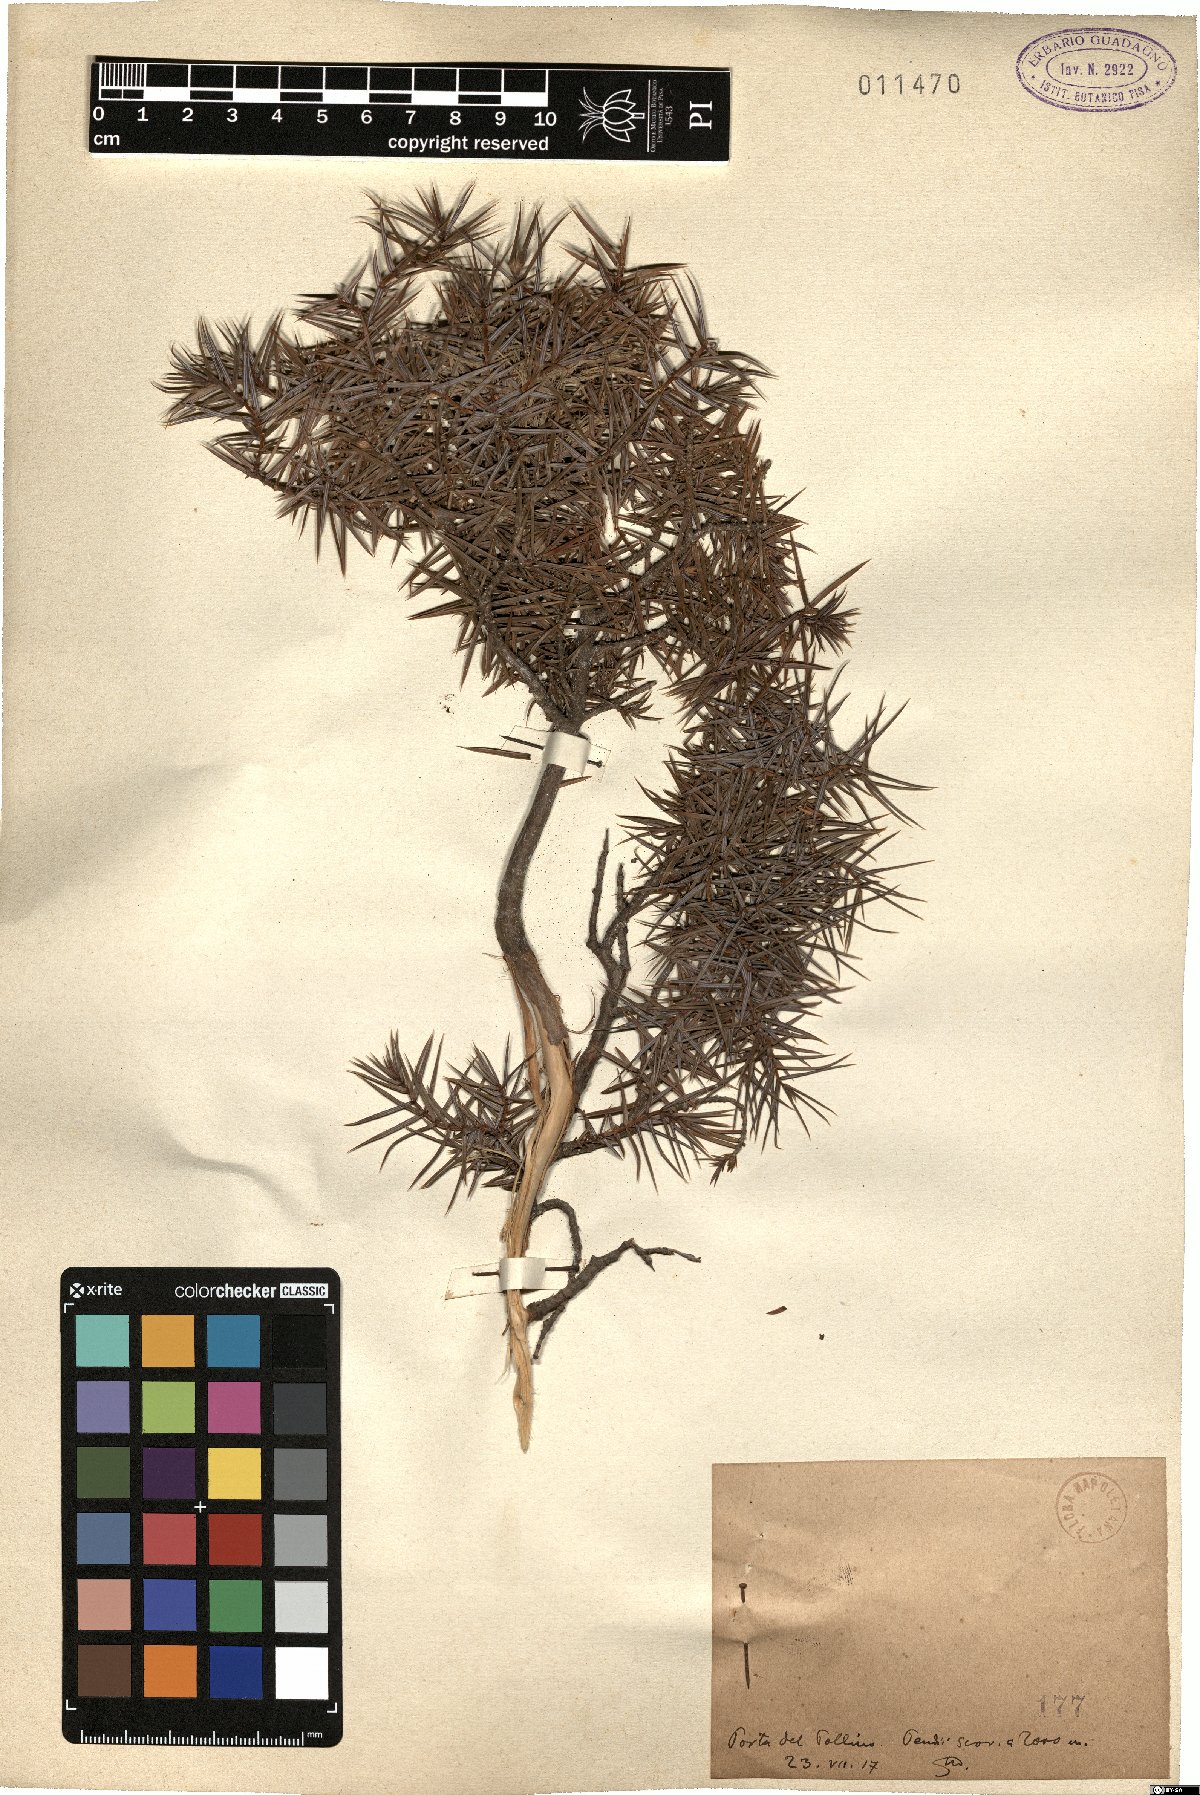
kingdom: Plantae
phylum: Tracheophyta
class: Pinopsida
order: Pinales
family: Cupressaceae
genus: Juniperus
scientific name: Juniperus oxycedrus
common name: Prickly juniper
